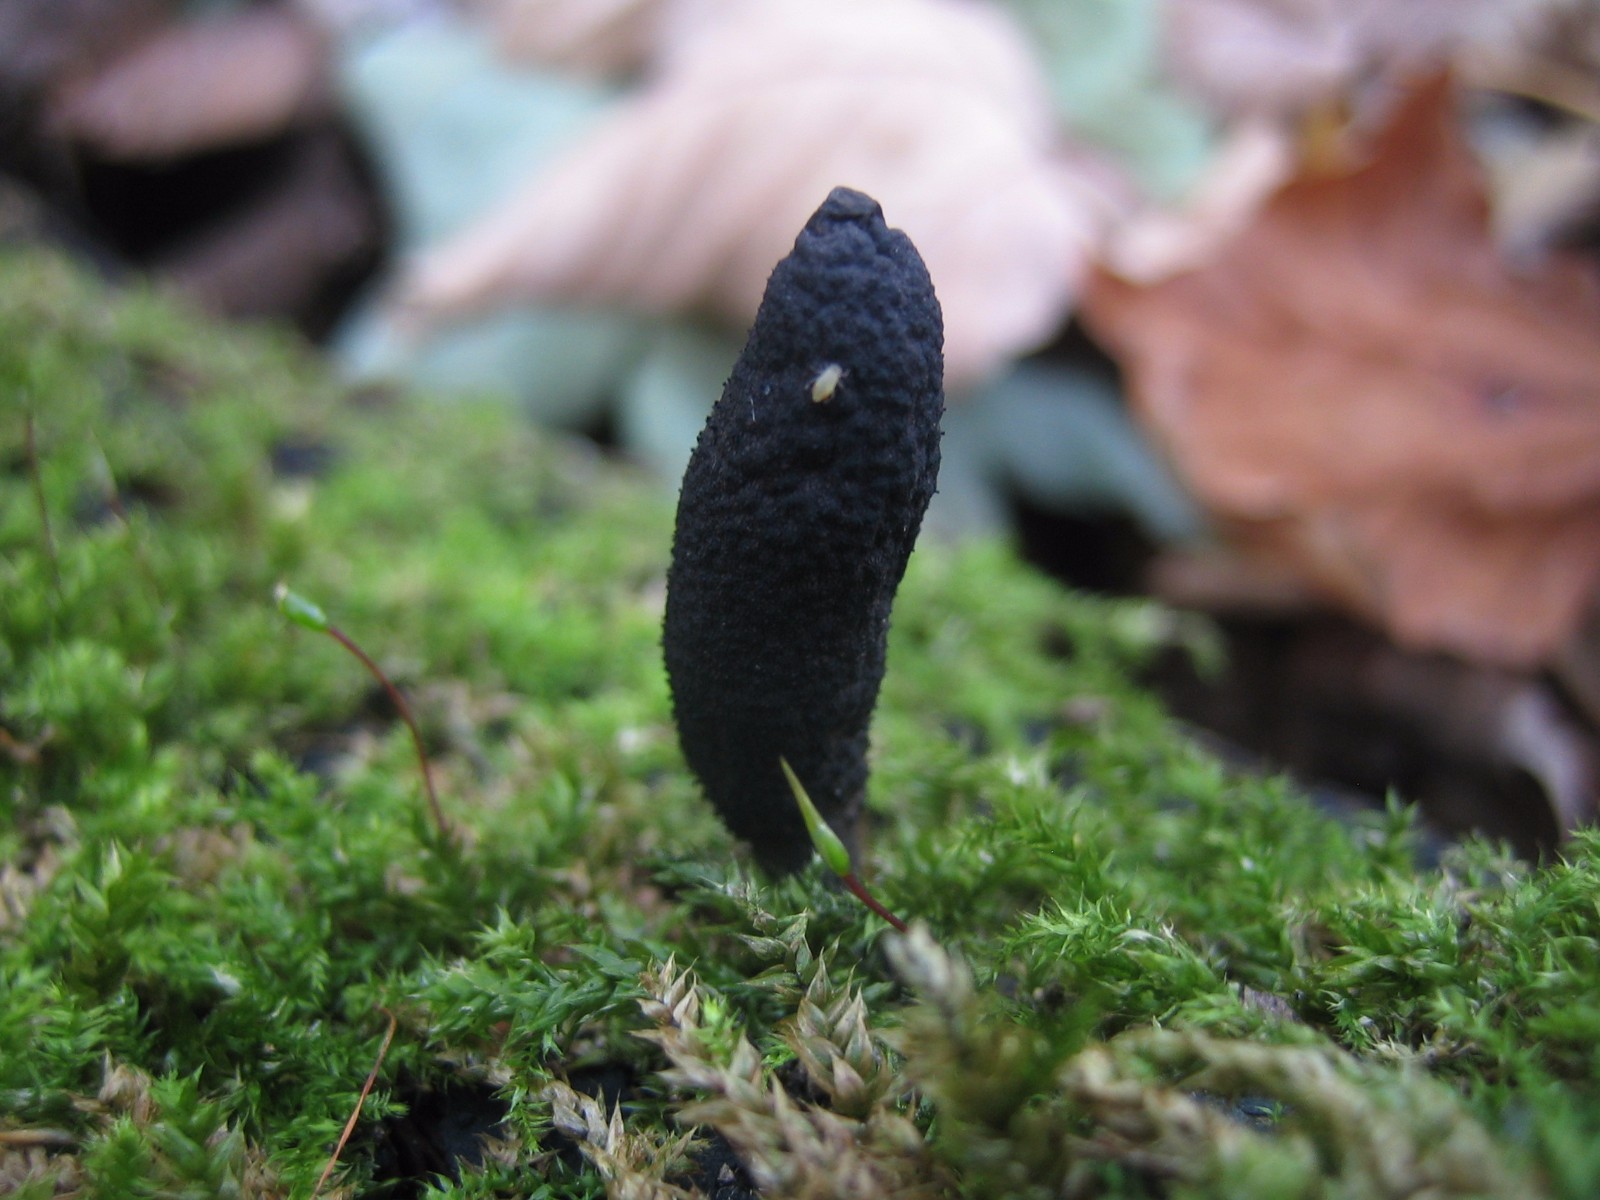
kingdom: Fungi
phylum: Ascomycota
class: Sordariomycetes
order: Xylariales
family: Xylariaceae
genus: Xylaria
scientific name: Xylaria longipes
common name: slank stødsvamp
